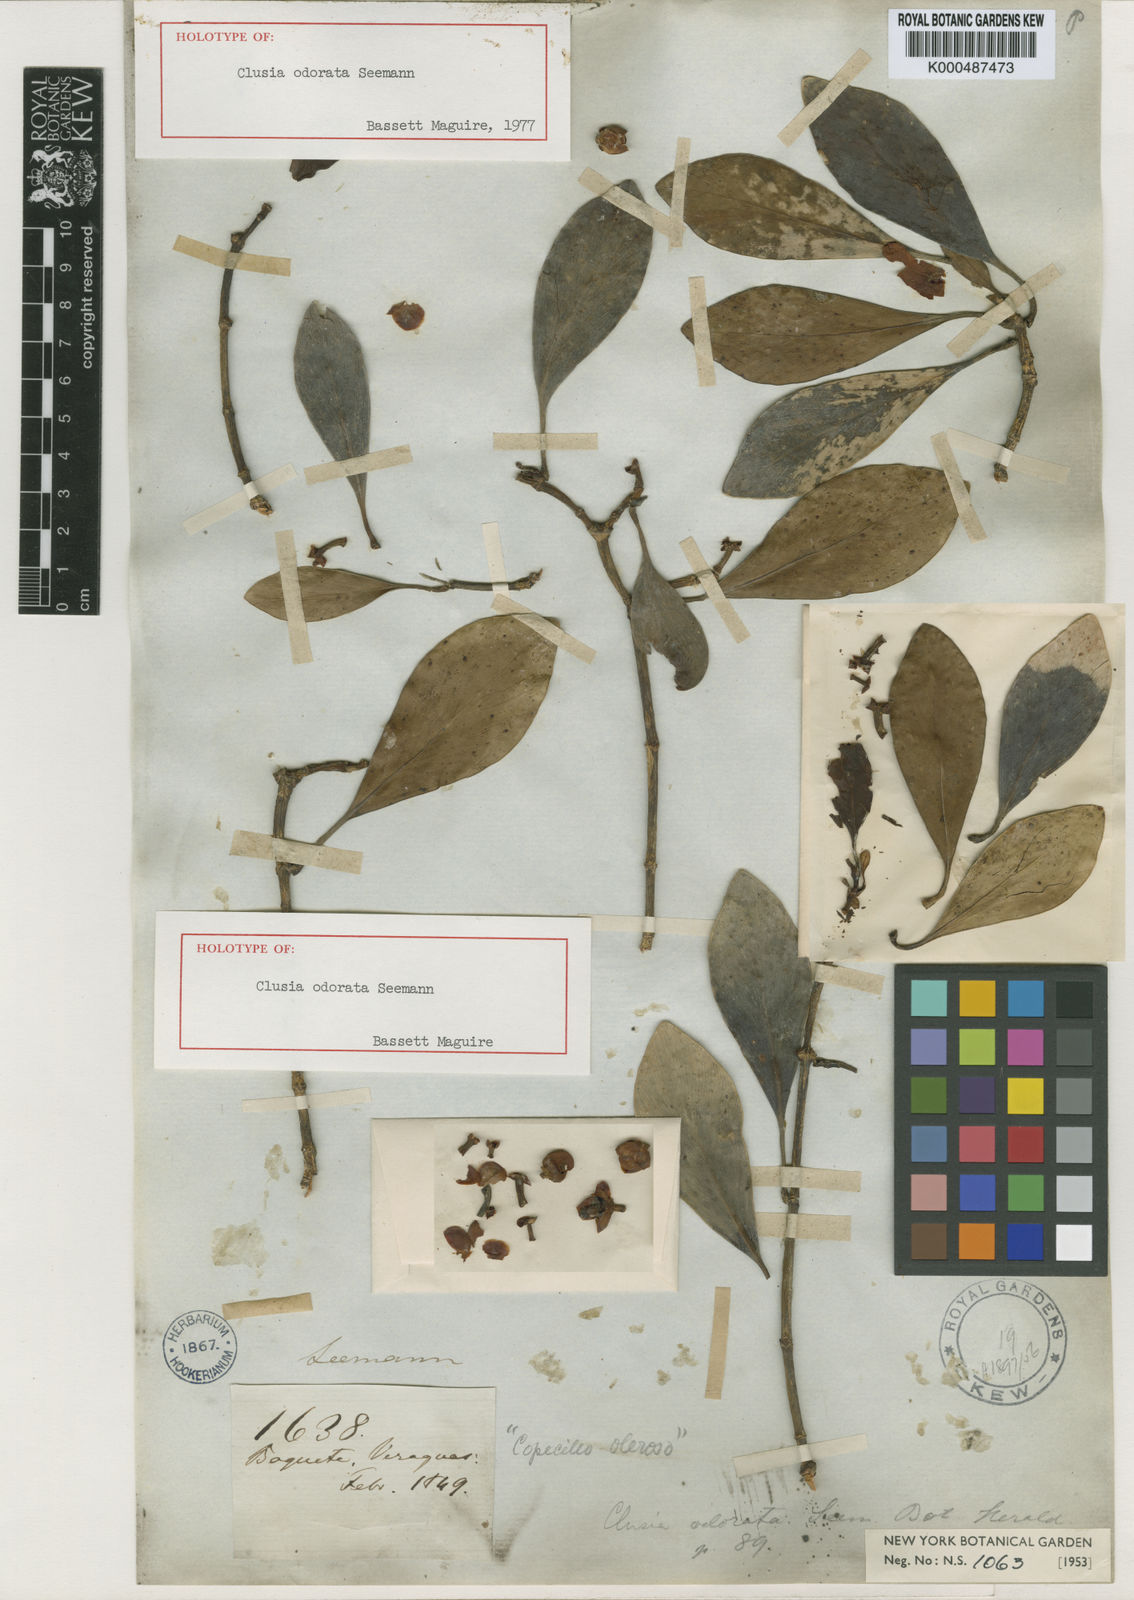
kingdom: Plantae
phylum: Tracheophyta
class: Magnoliopsida
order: Malpighiales
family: Clusiaceae
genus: Clusia
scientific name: Clusia minor
